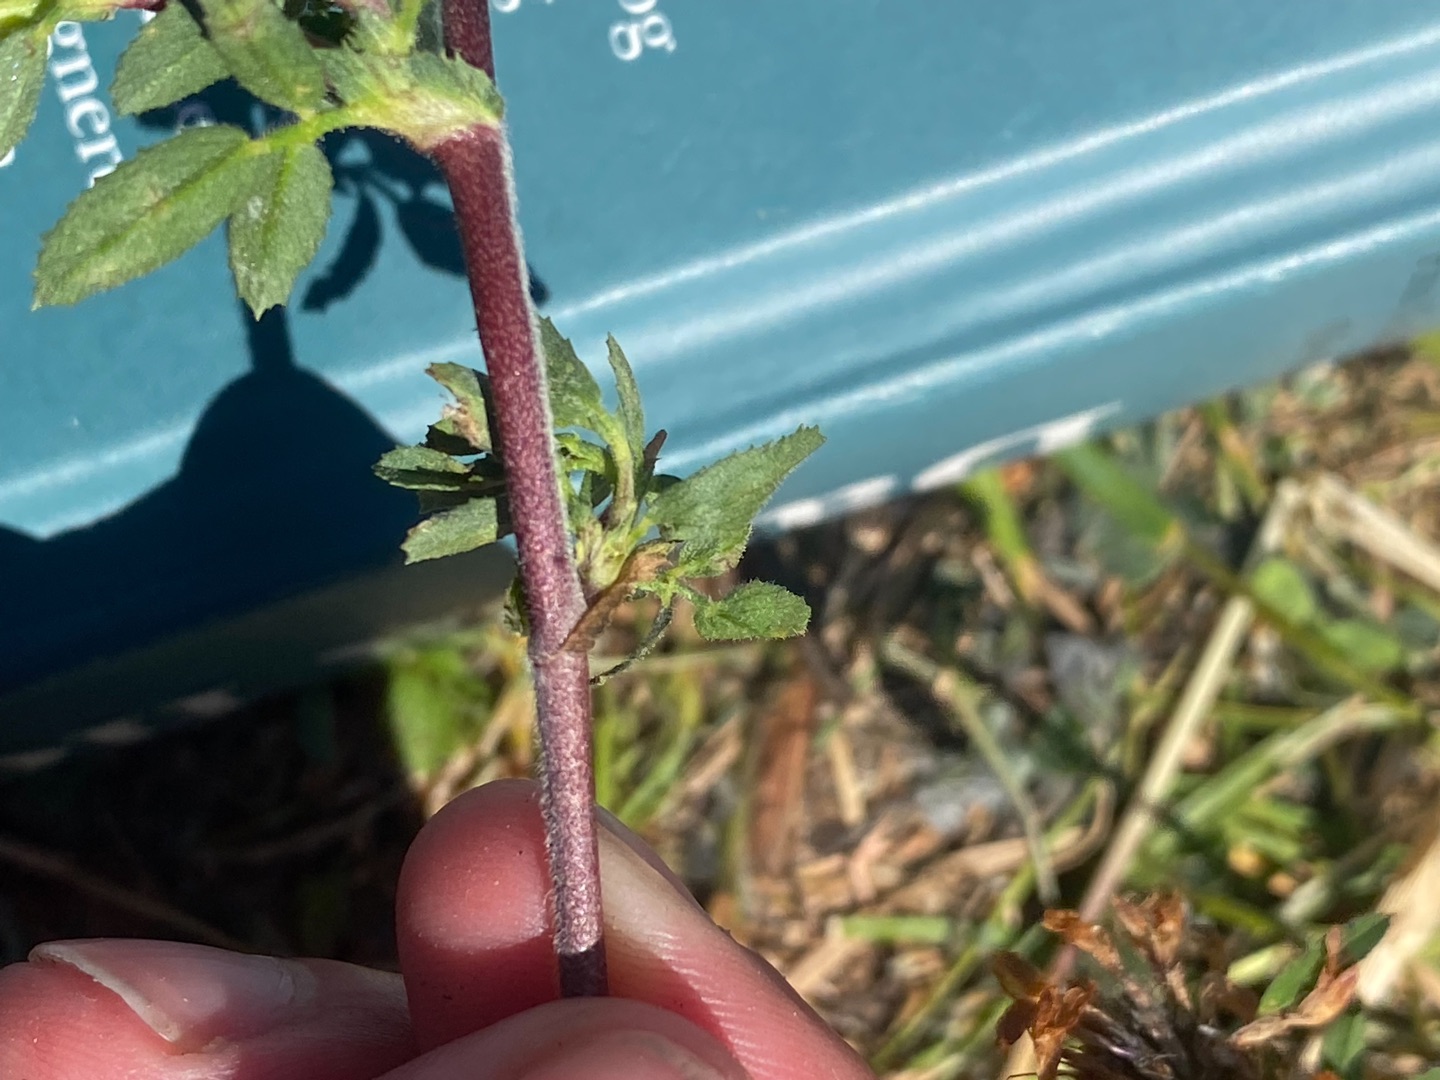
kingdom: Plantae
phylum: Tracheophyta
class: Magnoliopsida
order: Fabales
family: Fabaceae
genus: Ononis
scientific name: Ononis spinosa
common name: Strand-krageklo
